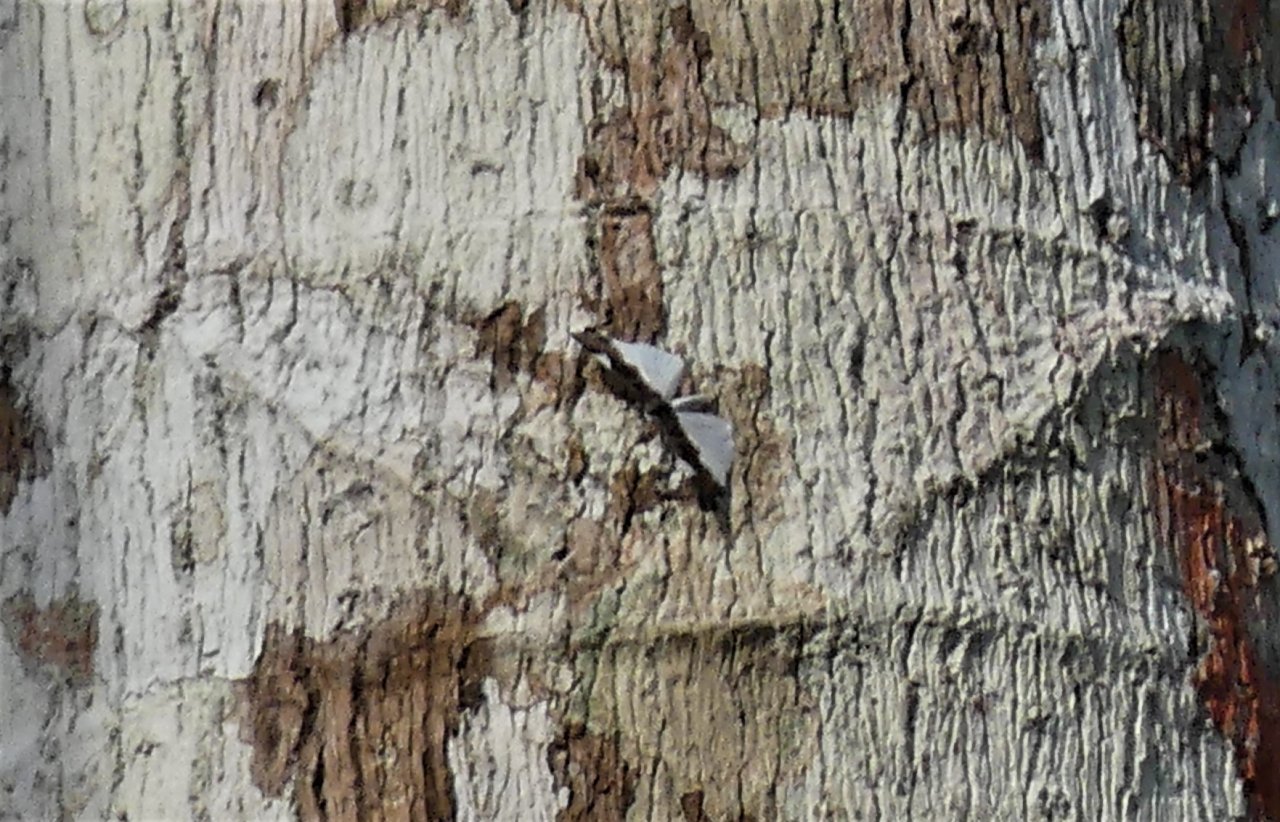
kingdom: Animalia
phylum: Arthropoda
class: Insecta
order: Lepidoptera
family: Riodinidae
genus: Behemothia
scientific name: Behemothia
